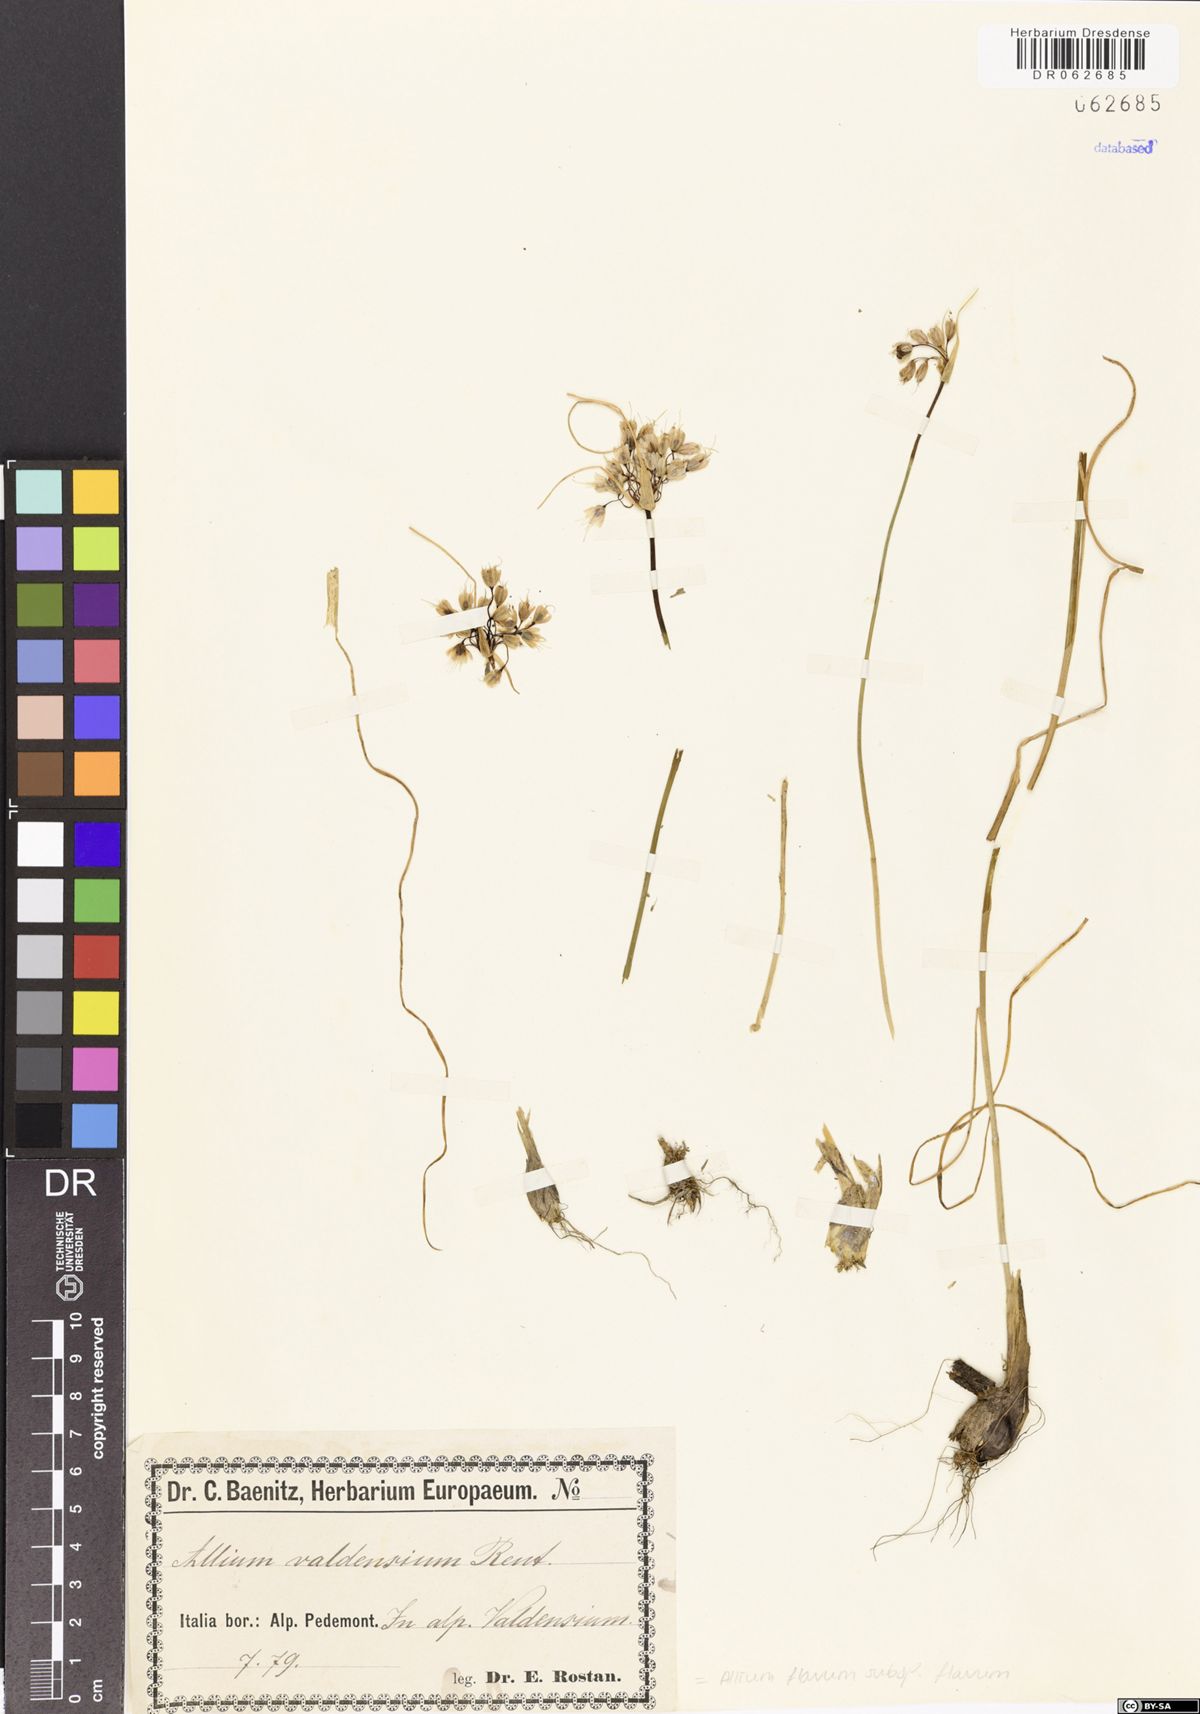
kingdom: Plantae
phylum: Tracheophyta
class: Liliopsida
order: Asparagales
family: Amaryllidaceae
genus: Allium
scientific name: Allium flavum
